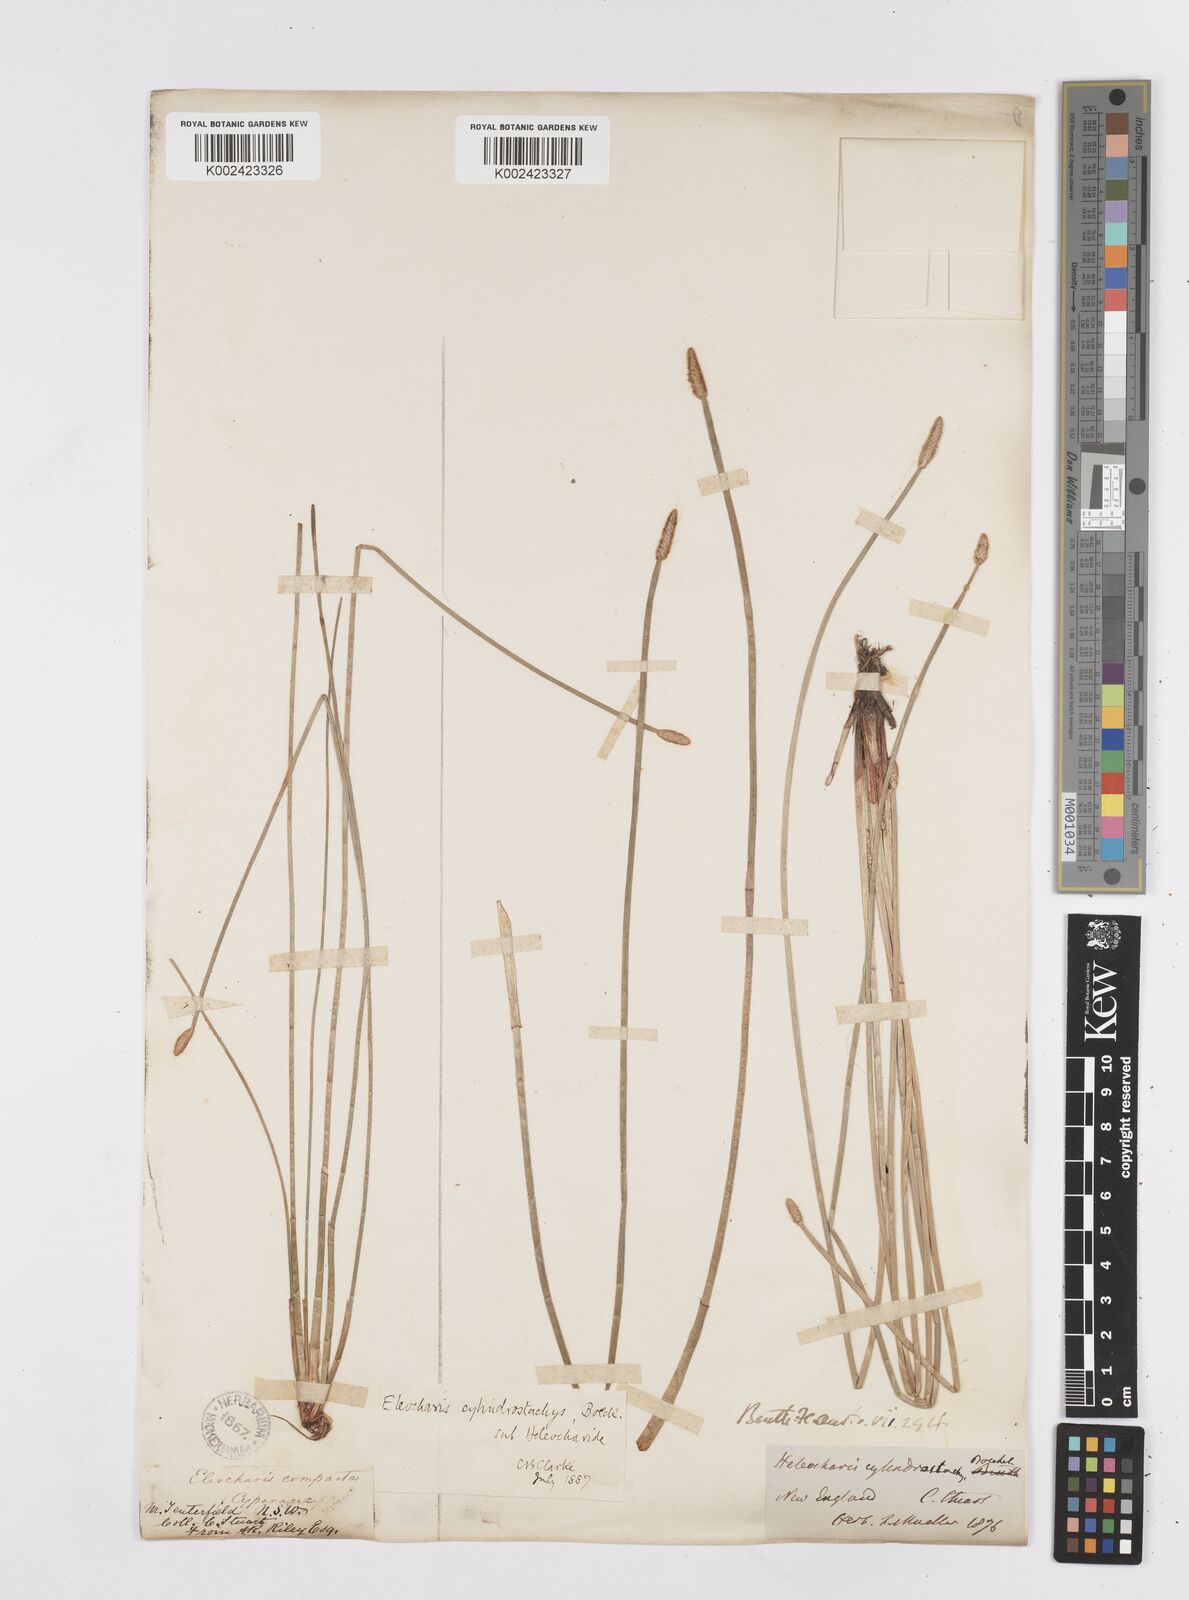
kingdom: Plantae
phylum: Tracheophyta
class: Liliopsida
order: Poales
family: Cyperaceae
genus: Eleocharis
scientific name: Eleocharis cylindrostachys
